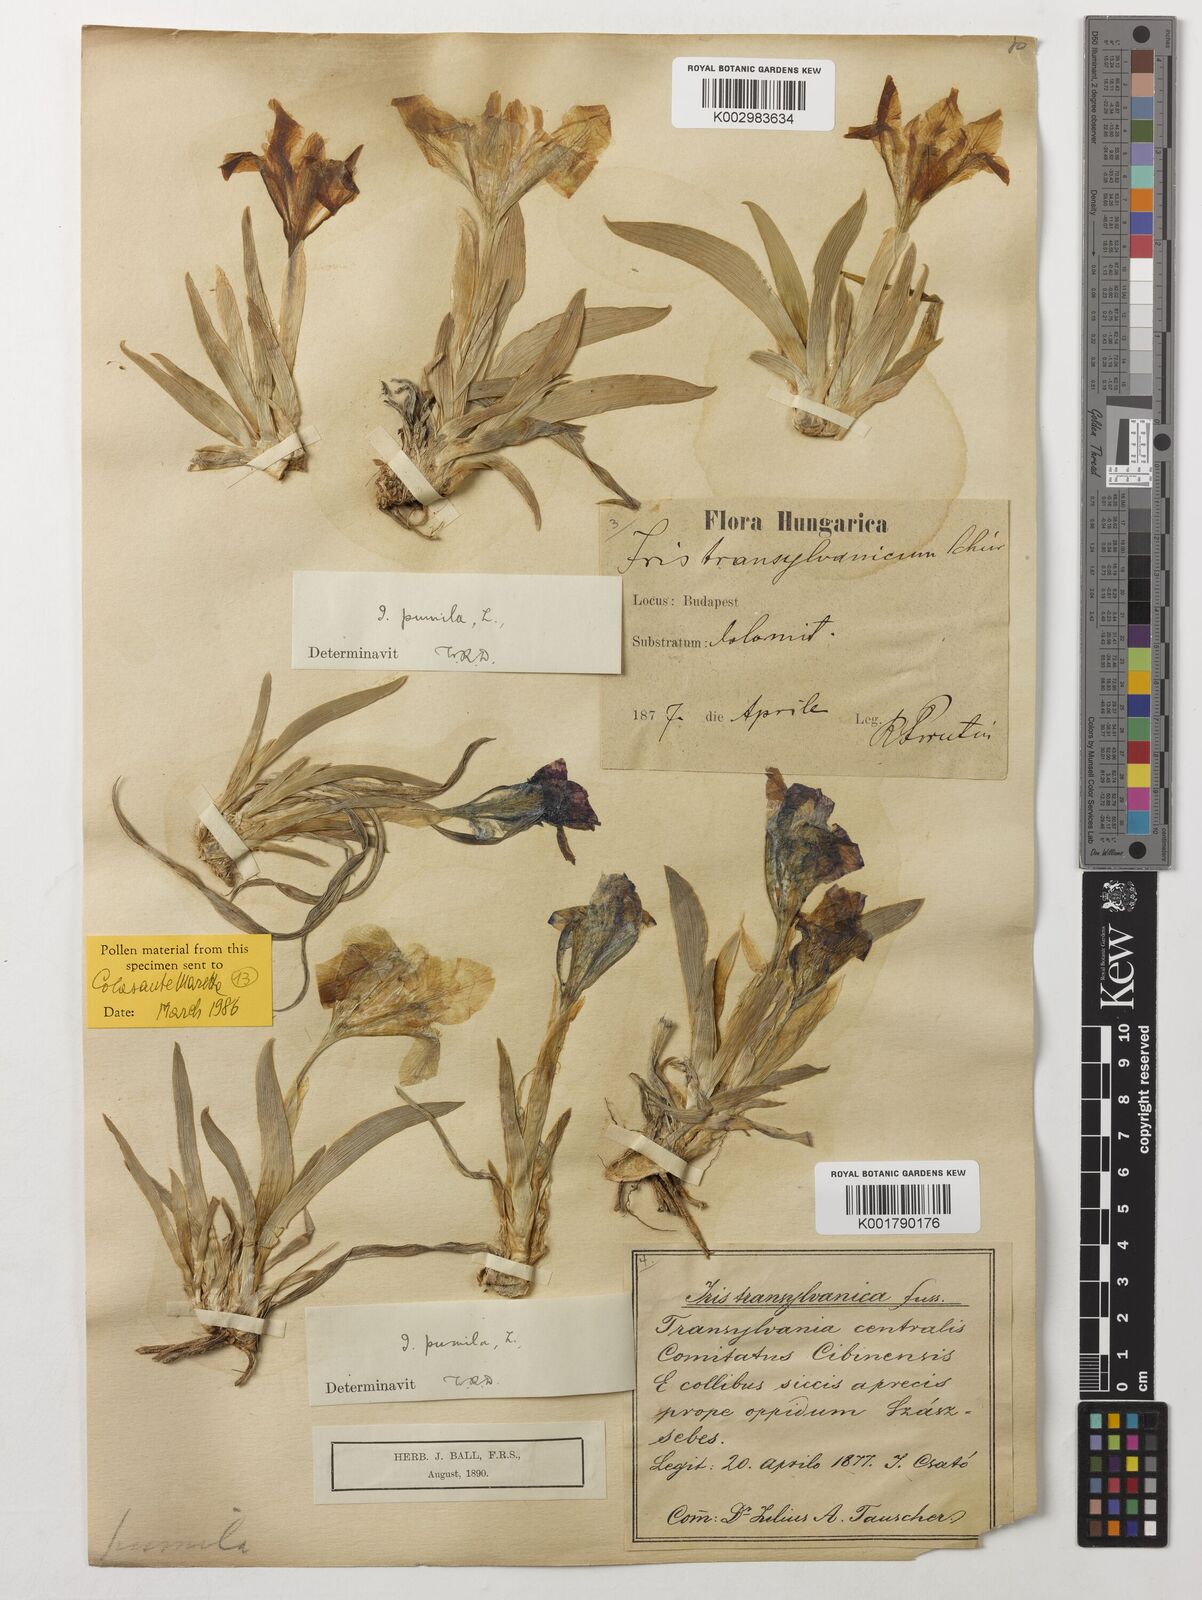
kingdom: Plantae
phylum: Tracheophyta
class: Liliopsida
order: Asparagales
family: Iridaceae
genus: Iris
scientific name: Iris pumila
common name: Dwarf iris
